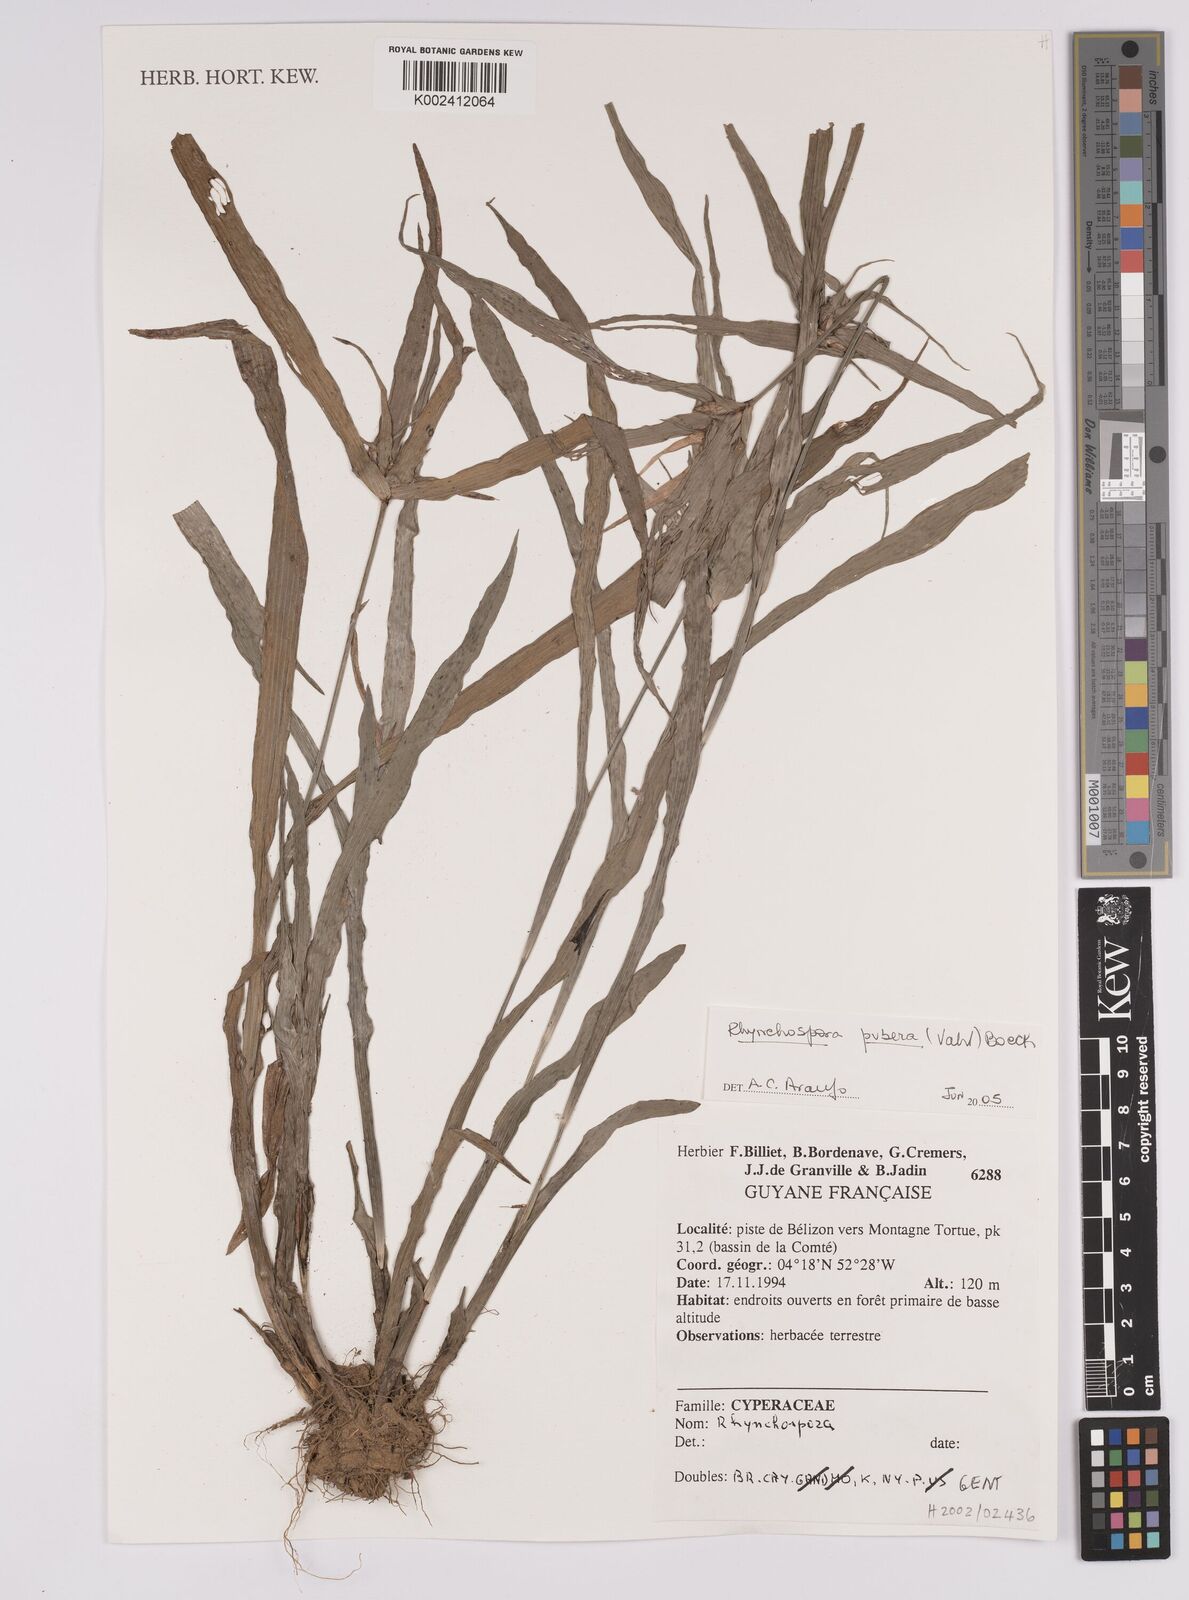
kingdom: Plantae
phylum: Tracheophyta
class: Liliopsida
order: Poales
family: Cyperaceae
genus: Rhynchospora
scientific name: Rhynchospora pubera
